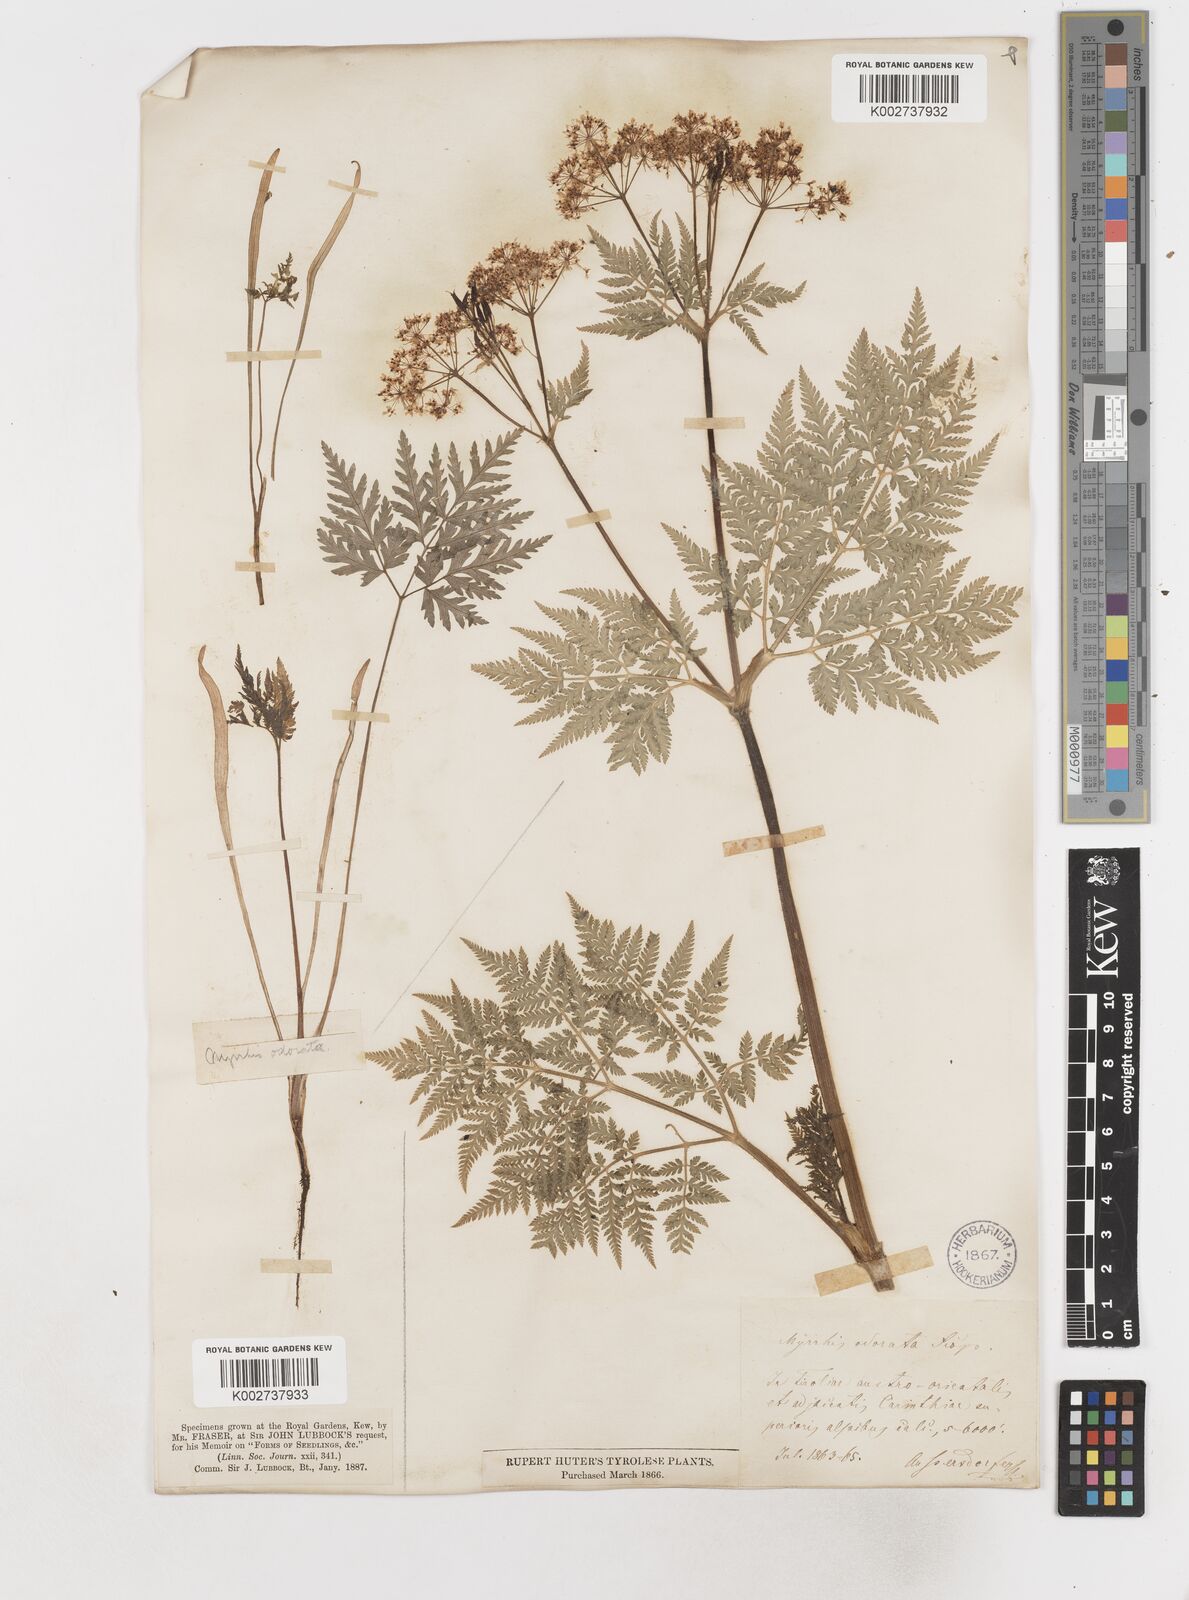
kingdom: Plantae
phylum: Tracheophyta
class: Magnoliopsida
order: Apiales
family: Apiaceae
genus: Myrrhis
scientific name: Myrrhis odorata
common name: Sweet cicely
